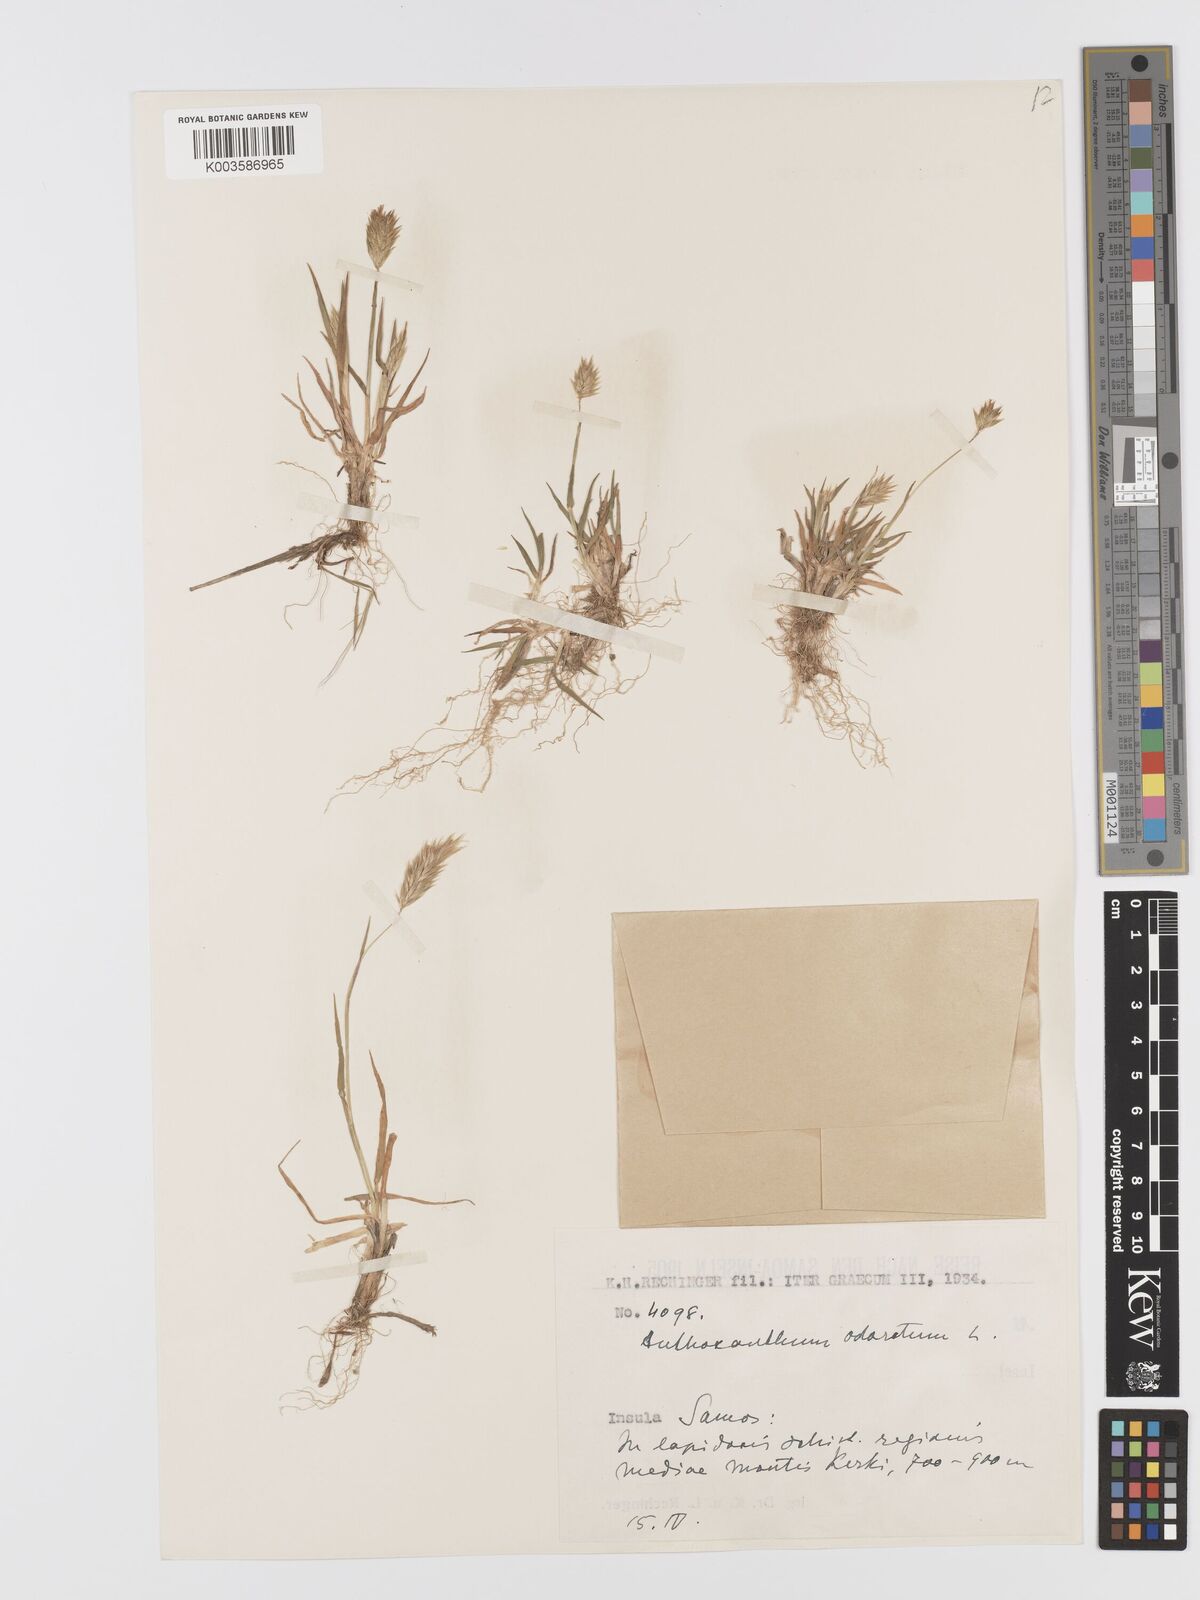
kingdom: Plantae
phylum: Tracheophyta
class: Liliopsida
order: Poales
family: Poaceae
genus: Anthoxanthum
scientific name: Anthoxanthum odoratum
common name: Sweet vernalgrass
